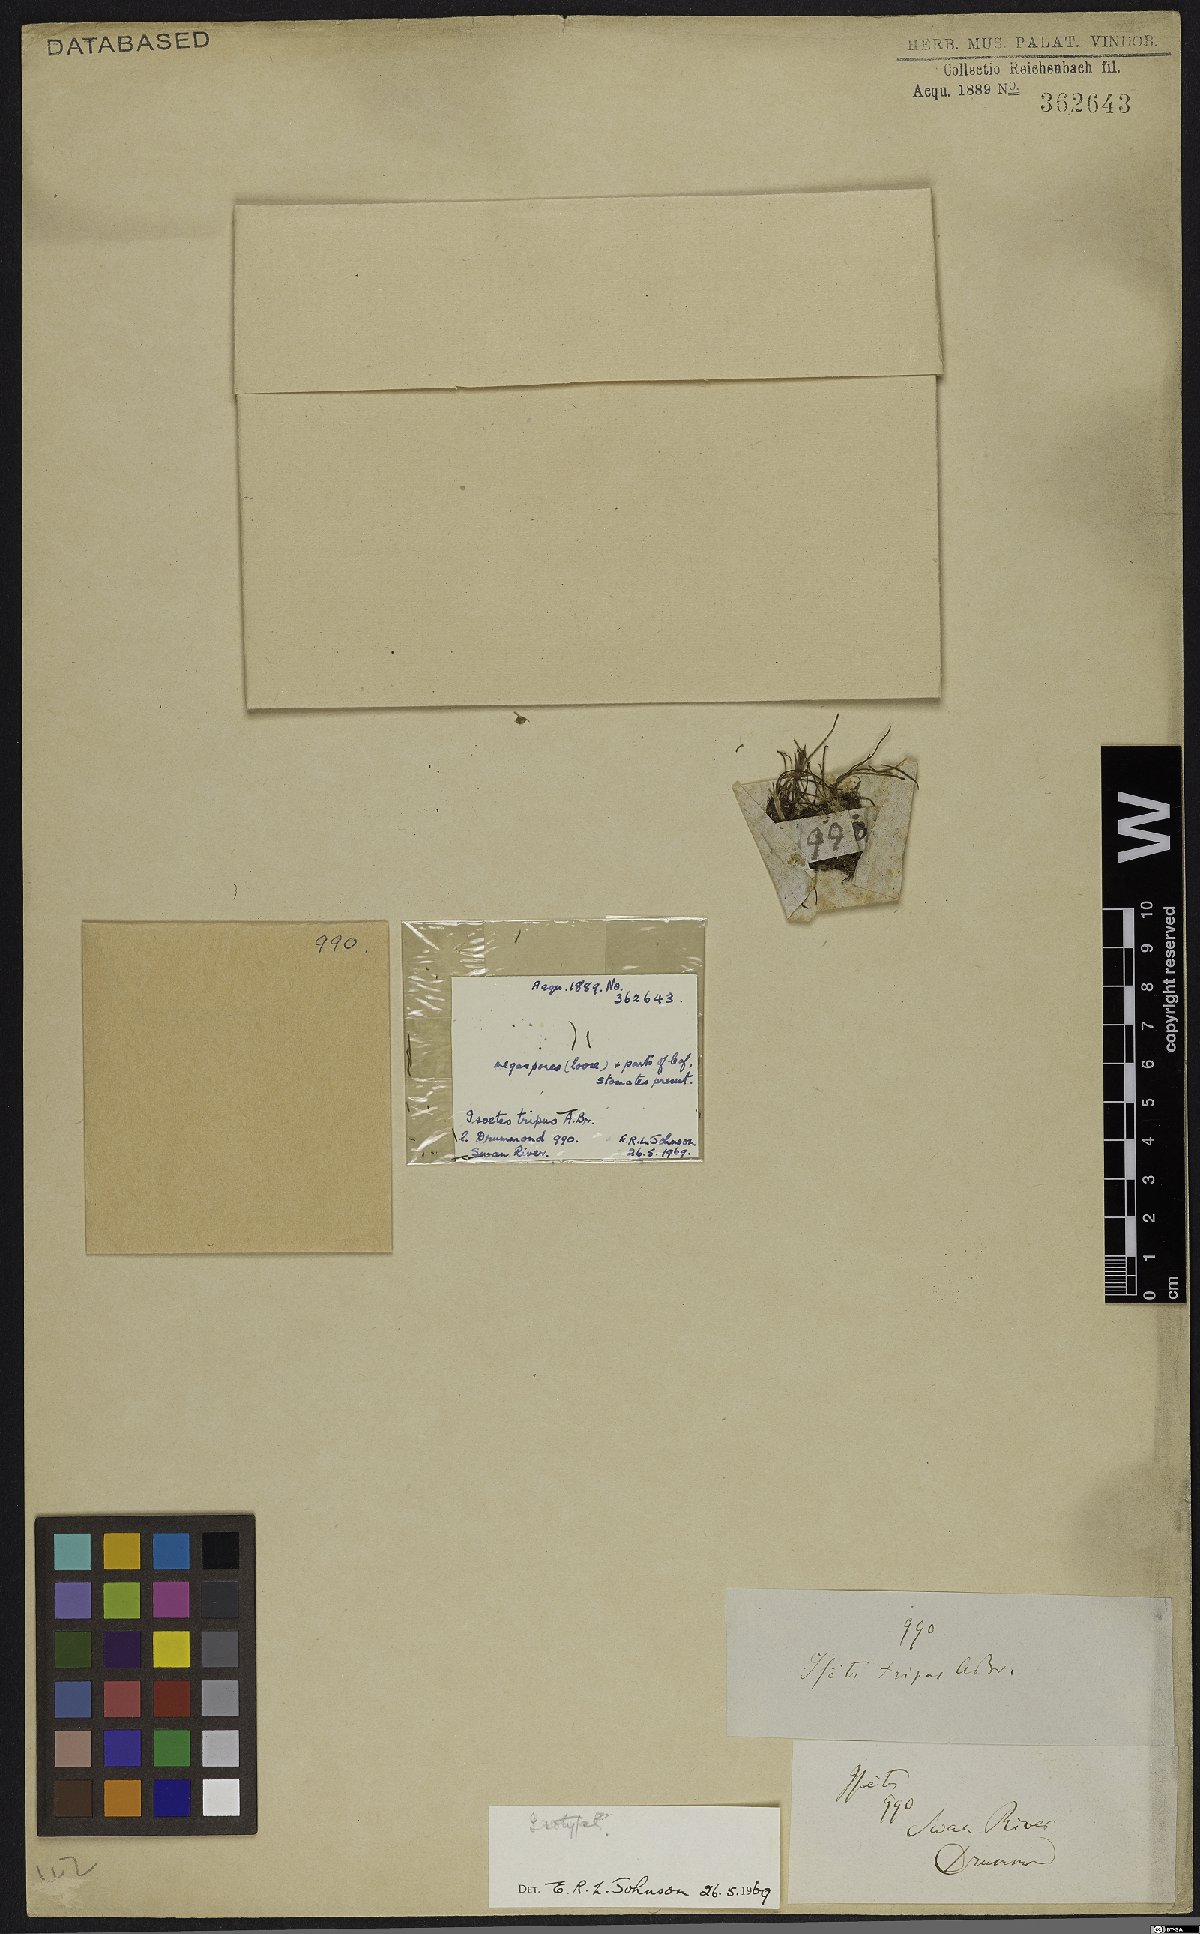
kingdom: Plantae
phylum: Tracheophyta
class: Lycopodiopsida
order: Isoetales
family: Isoetaceae
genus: Isoetes
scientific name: Isoetes tripus
